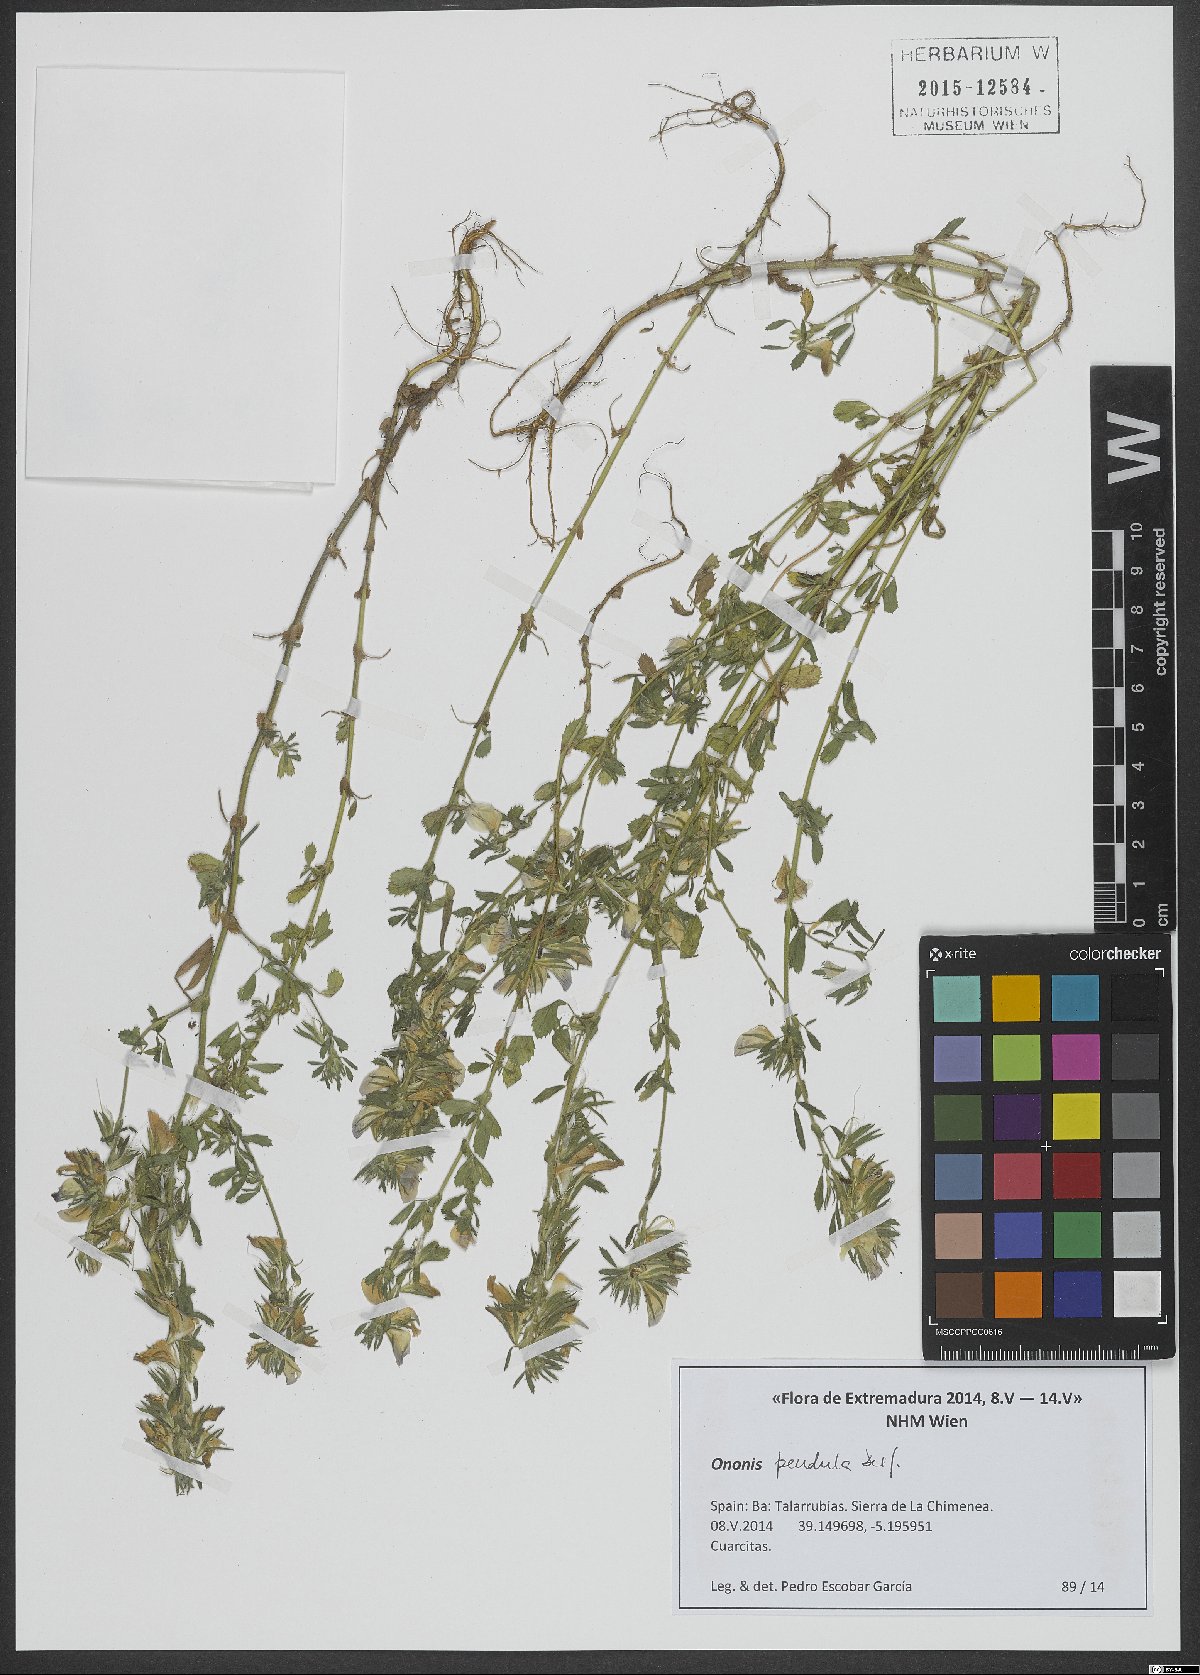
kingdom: Plantae
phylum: Tracheophyta
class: Magnoliopsida
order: Fabales
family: Fabaceae
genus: Ononis
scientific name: Ononis pendula
